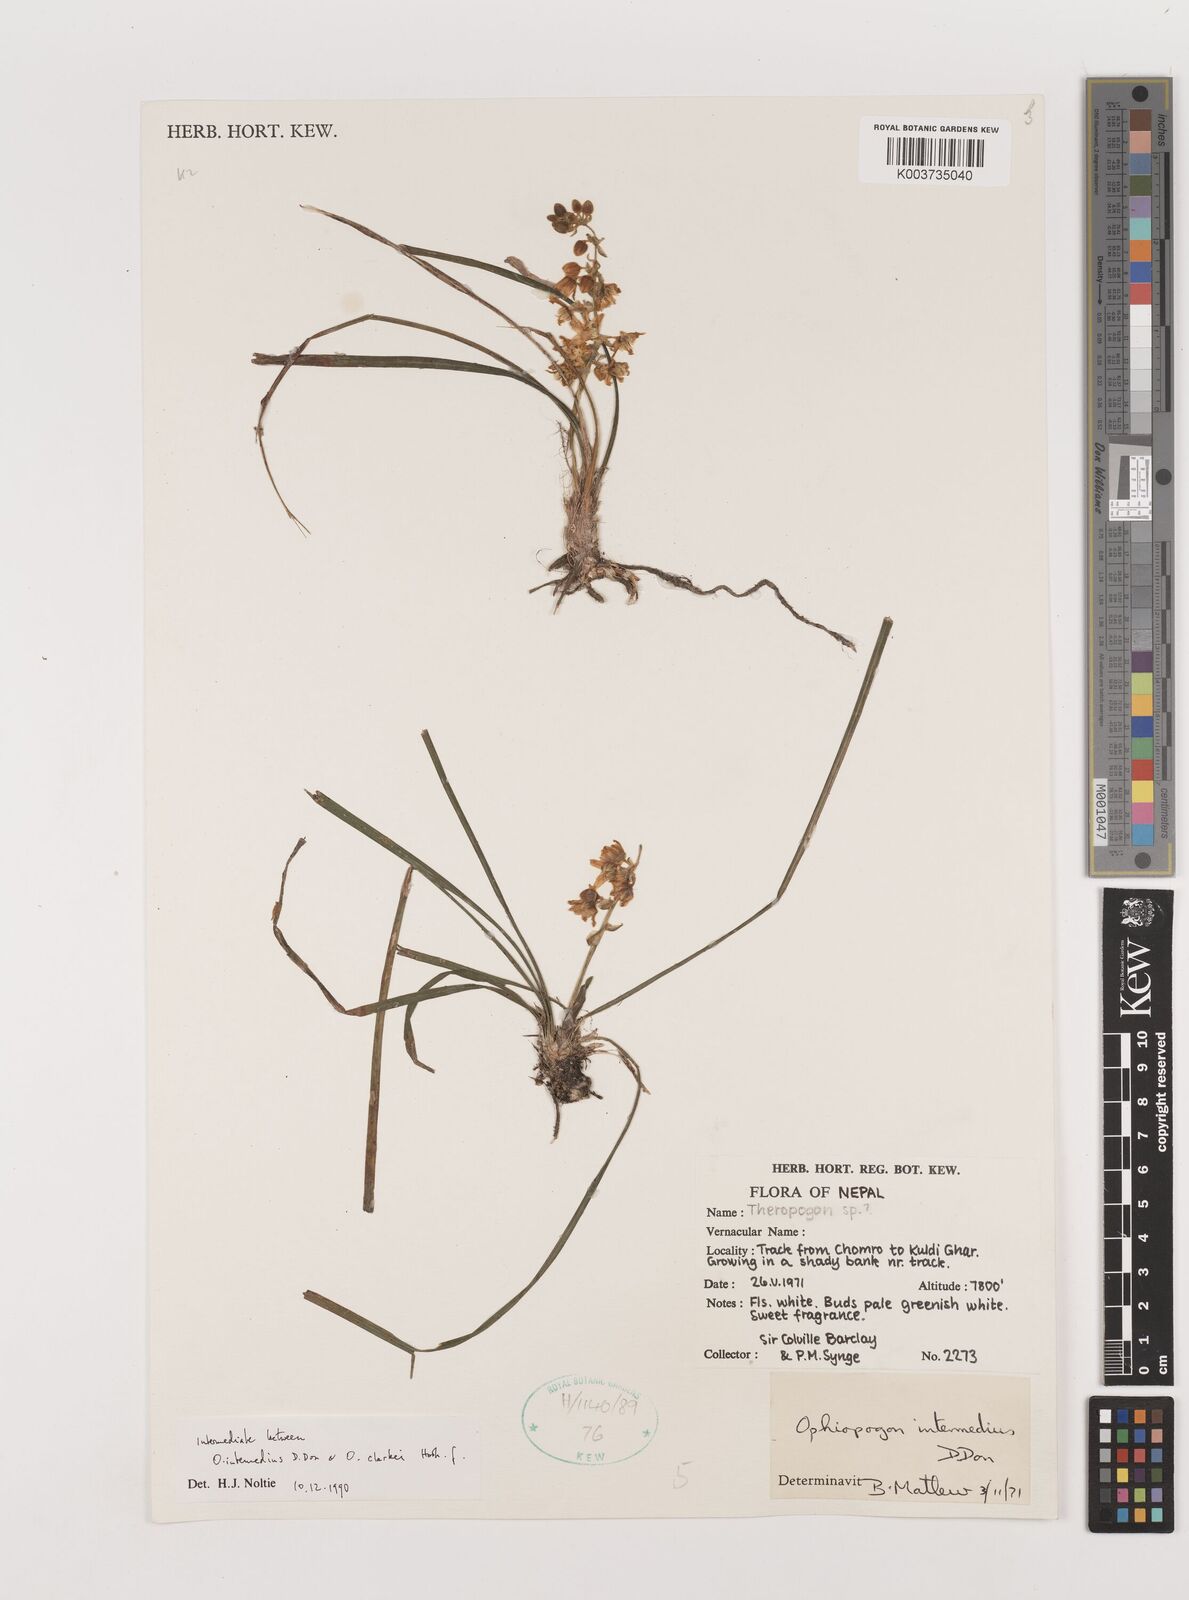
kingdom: Plantae
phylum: Tracheophyta
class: Liliopsida
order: Asparagales
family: Asparagaceae
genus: Ophiopogon
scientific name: Ophiopogon intermedius
